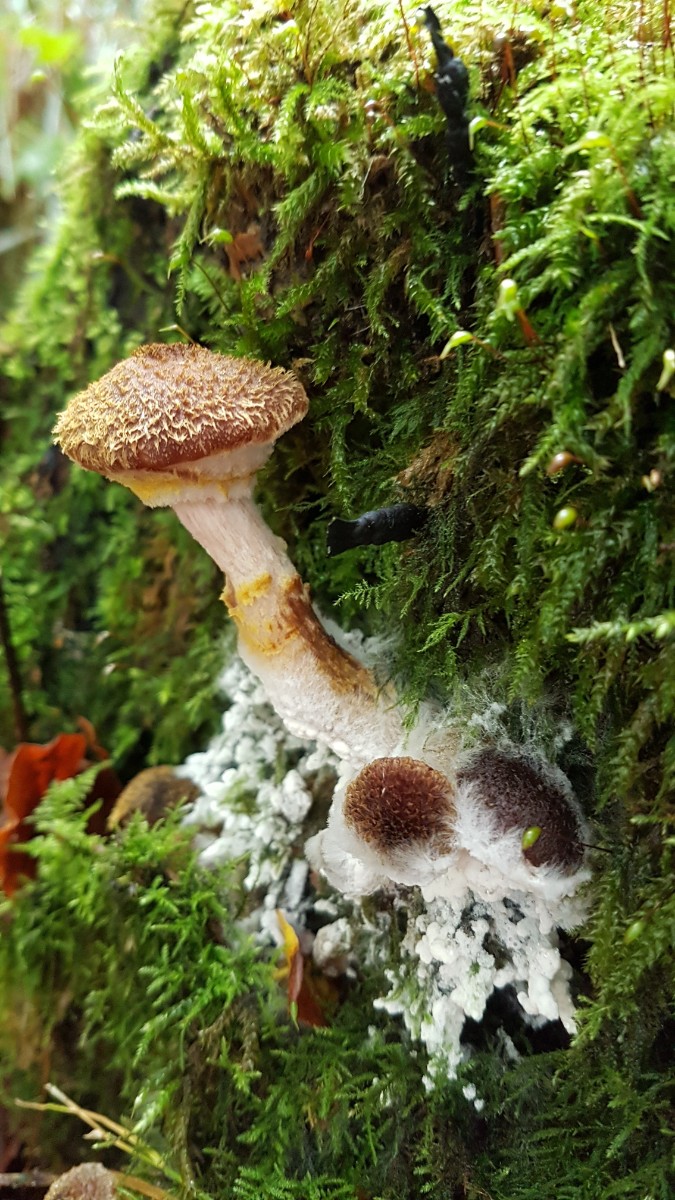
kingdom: Fungi
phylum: Basidiomycota
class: Agaricomycetes
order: Agaricales
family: Physalacriaceae
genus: Armillaria
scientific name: Armillaria lutea
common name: køllestokket honningsvamp
